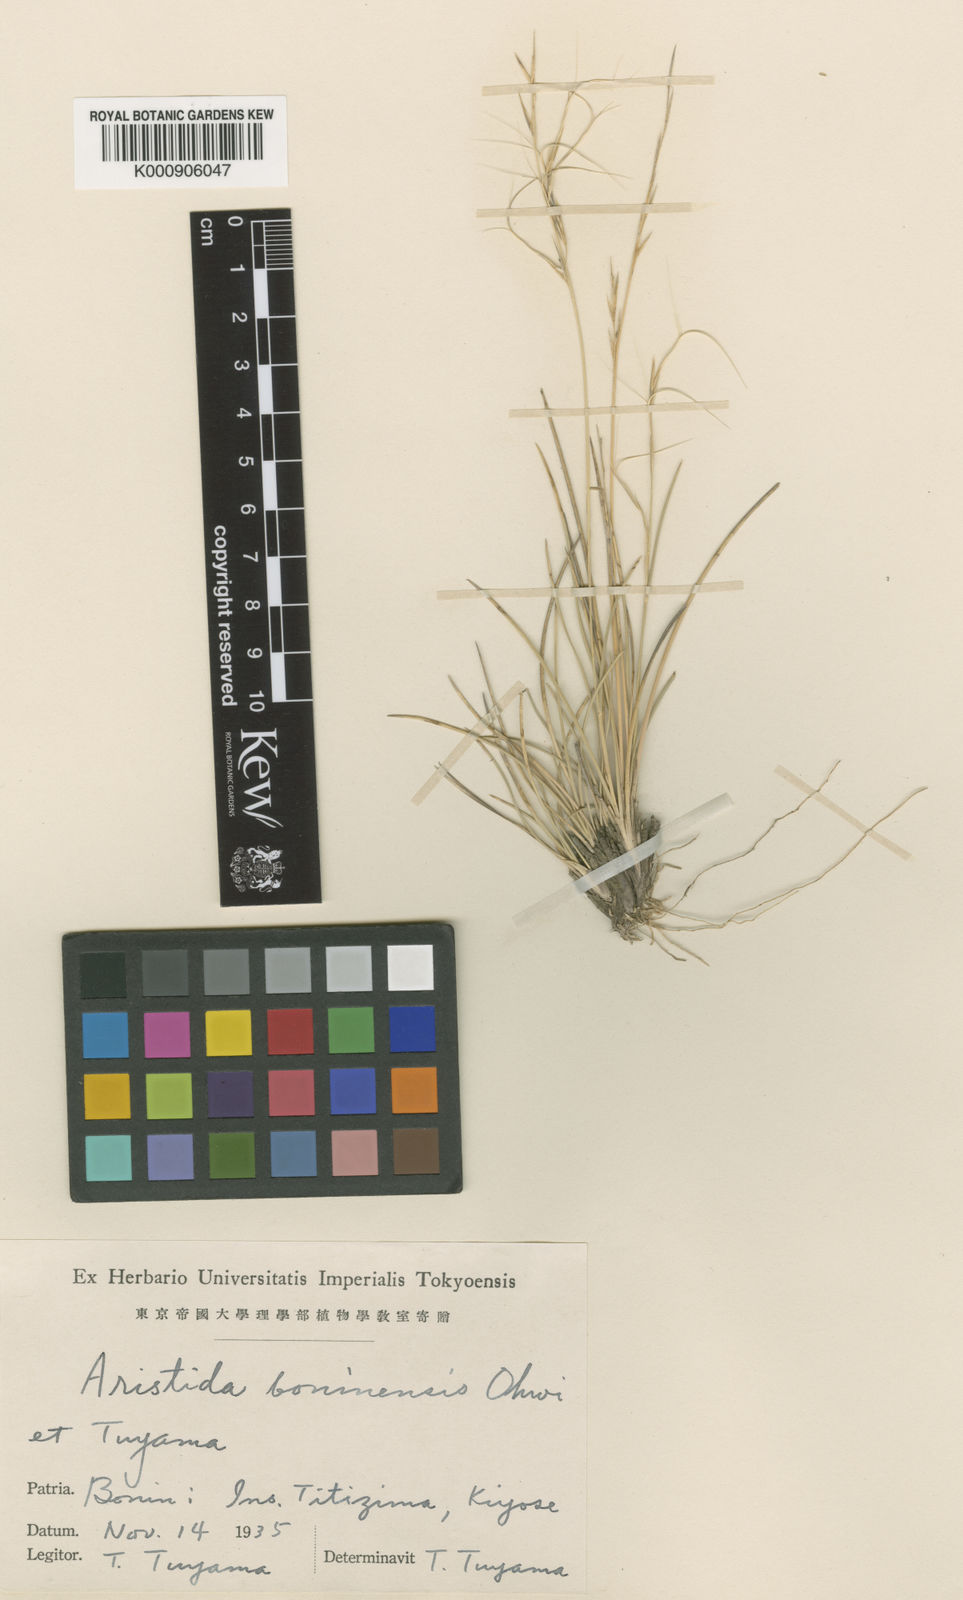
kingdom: Plantae
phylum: Tracheophyta
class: Liliopsida
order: Poales
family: Poaceae
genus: Aristida
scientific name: Aristida boninensis
